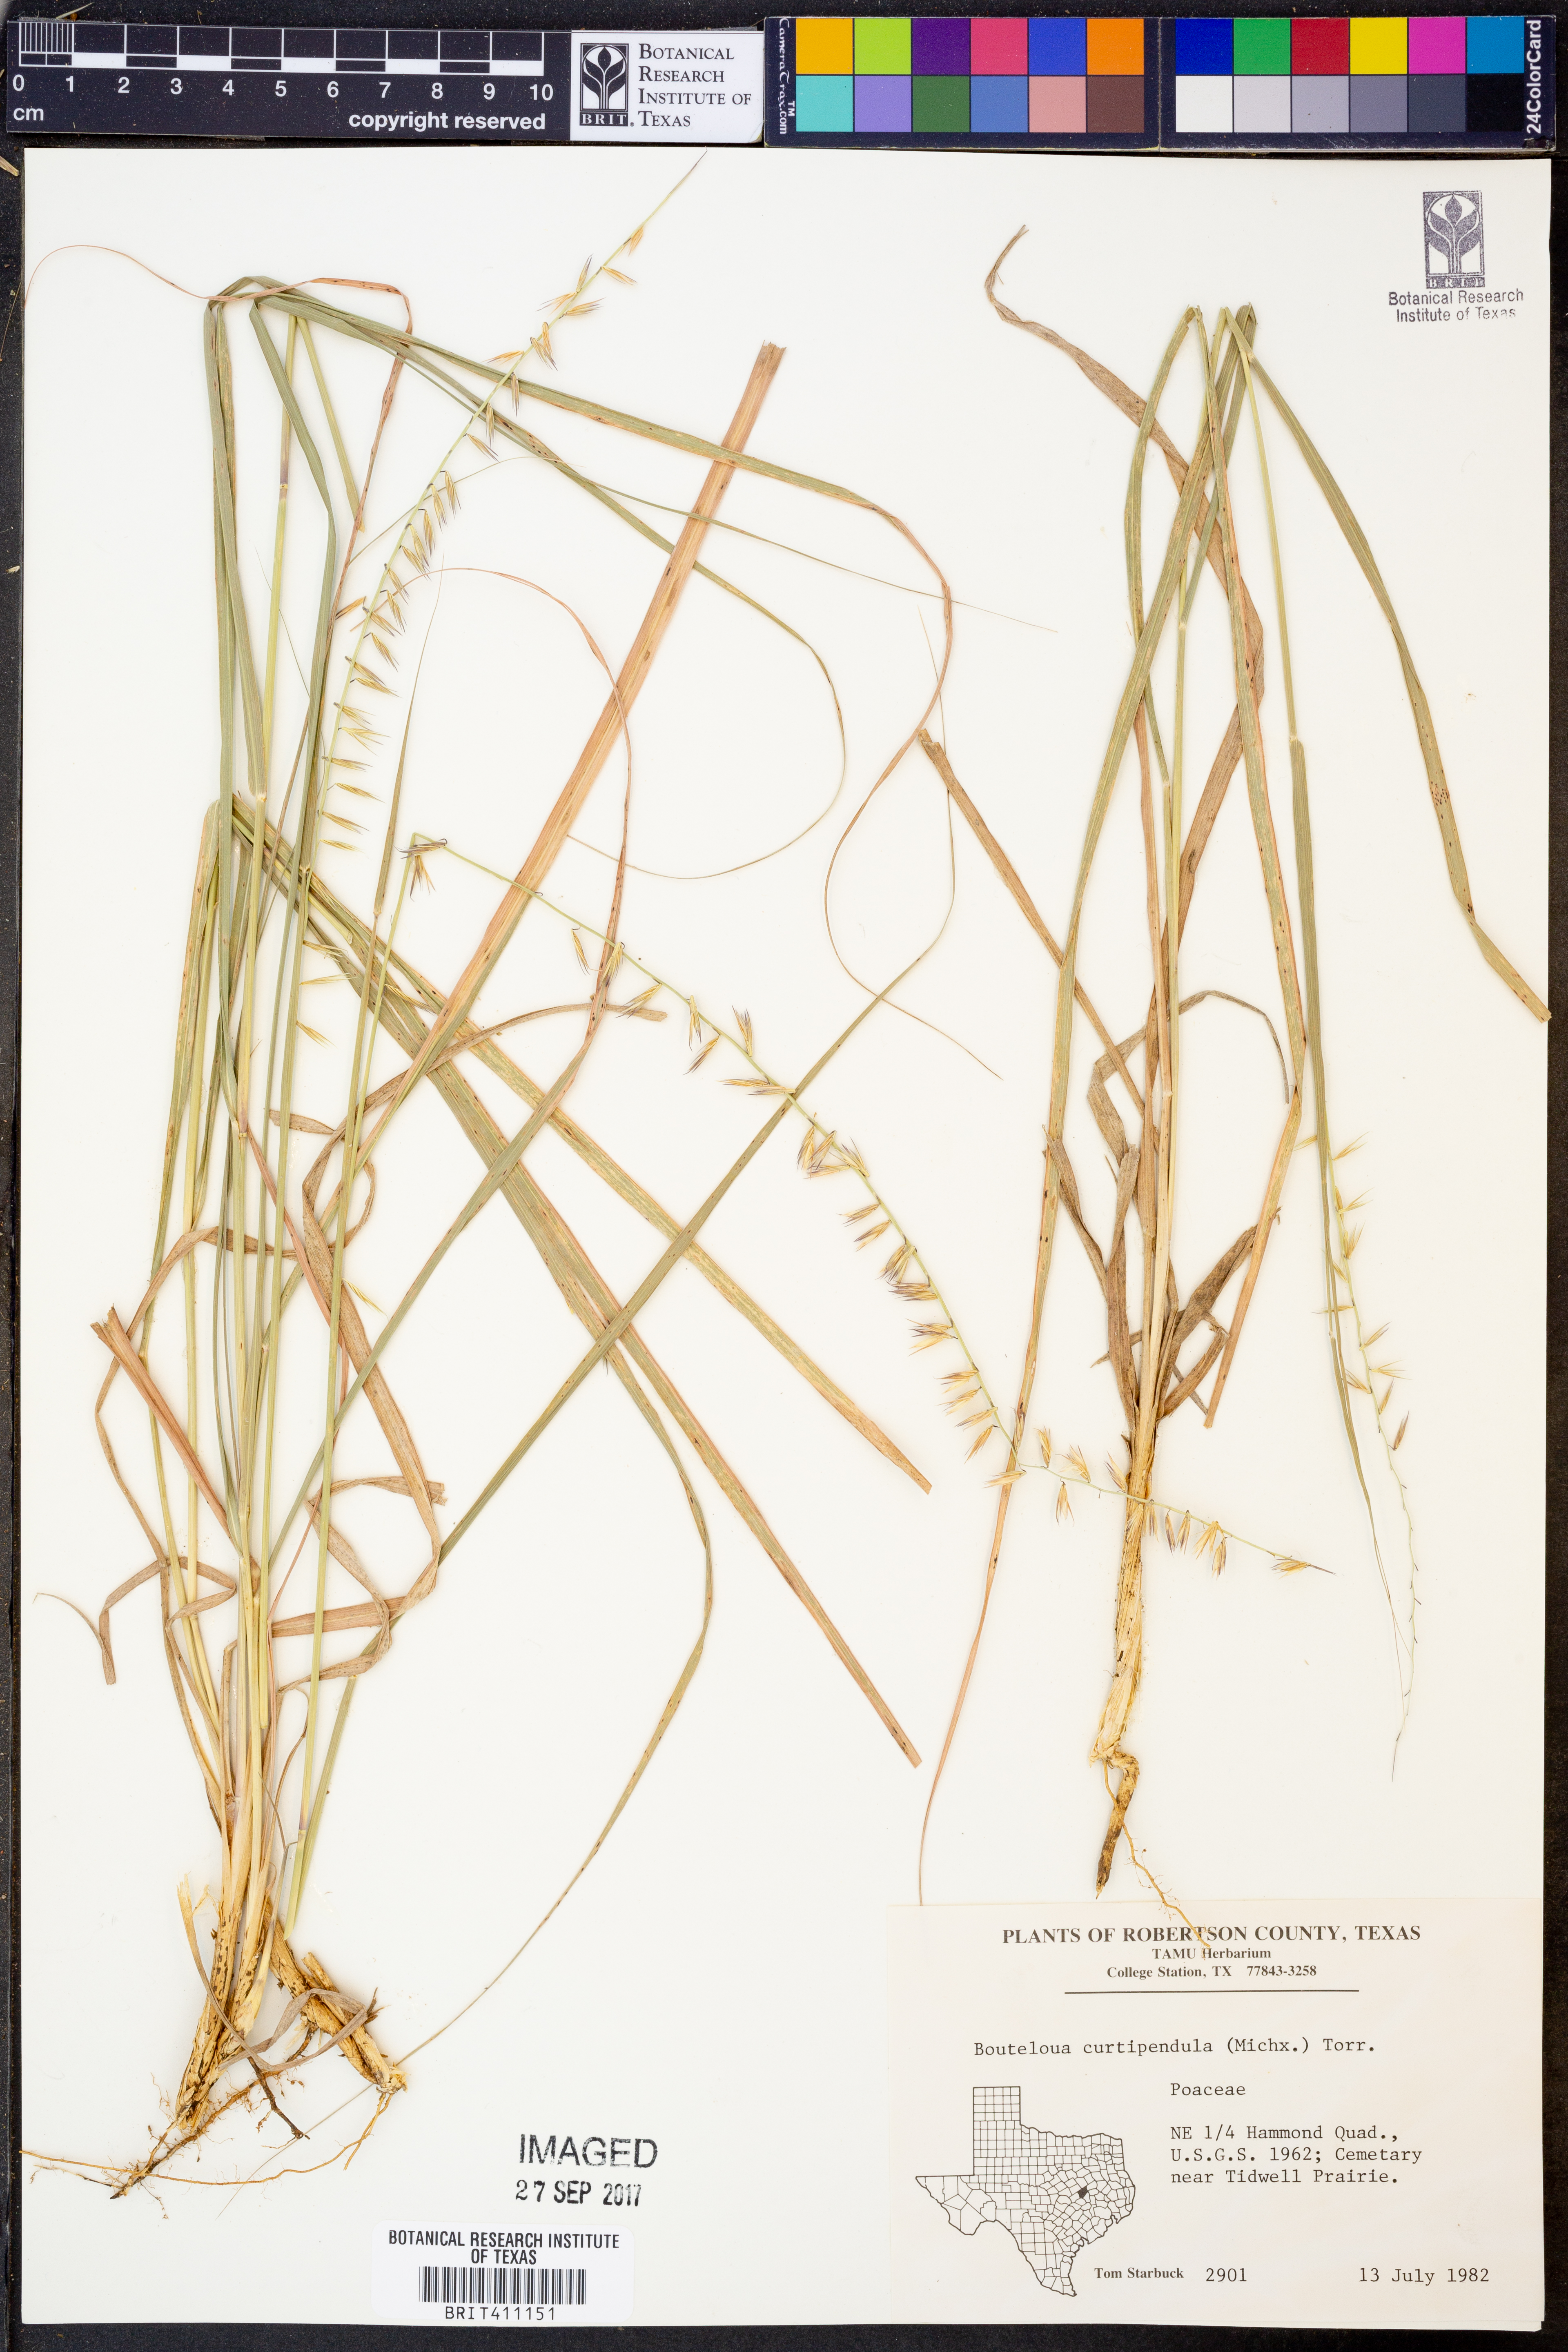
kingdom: Plantae
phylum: Tracheophyta
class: Liliopsida
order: Poales
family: Poaceae
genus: Bouteloua
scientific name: Bouteloua curtipendula
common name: Side-oats grama
